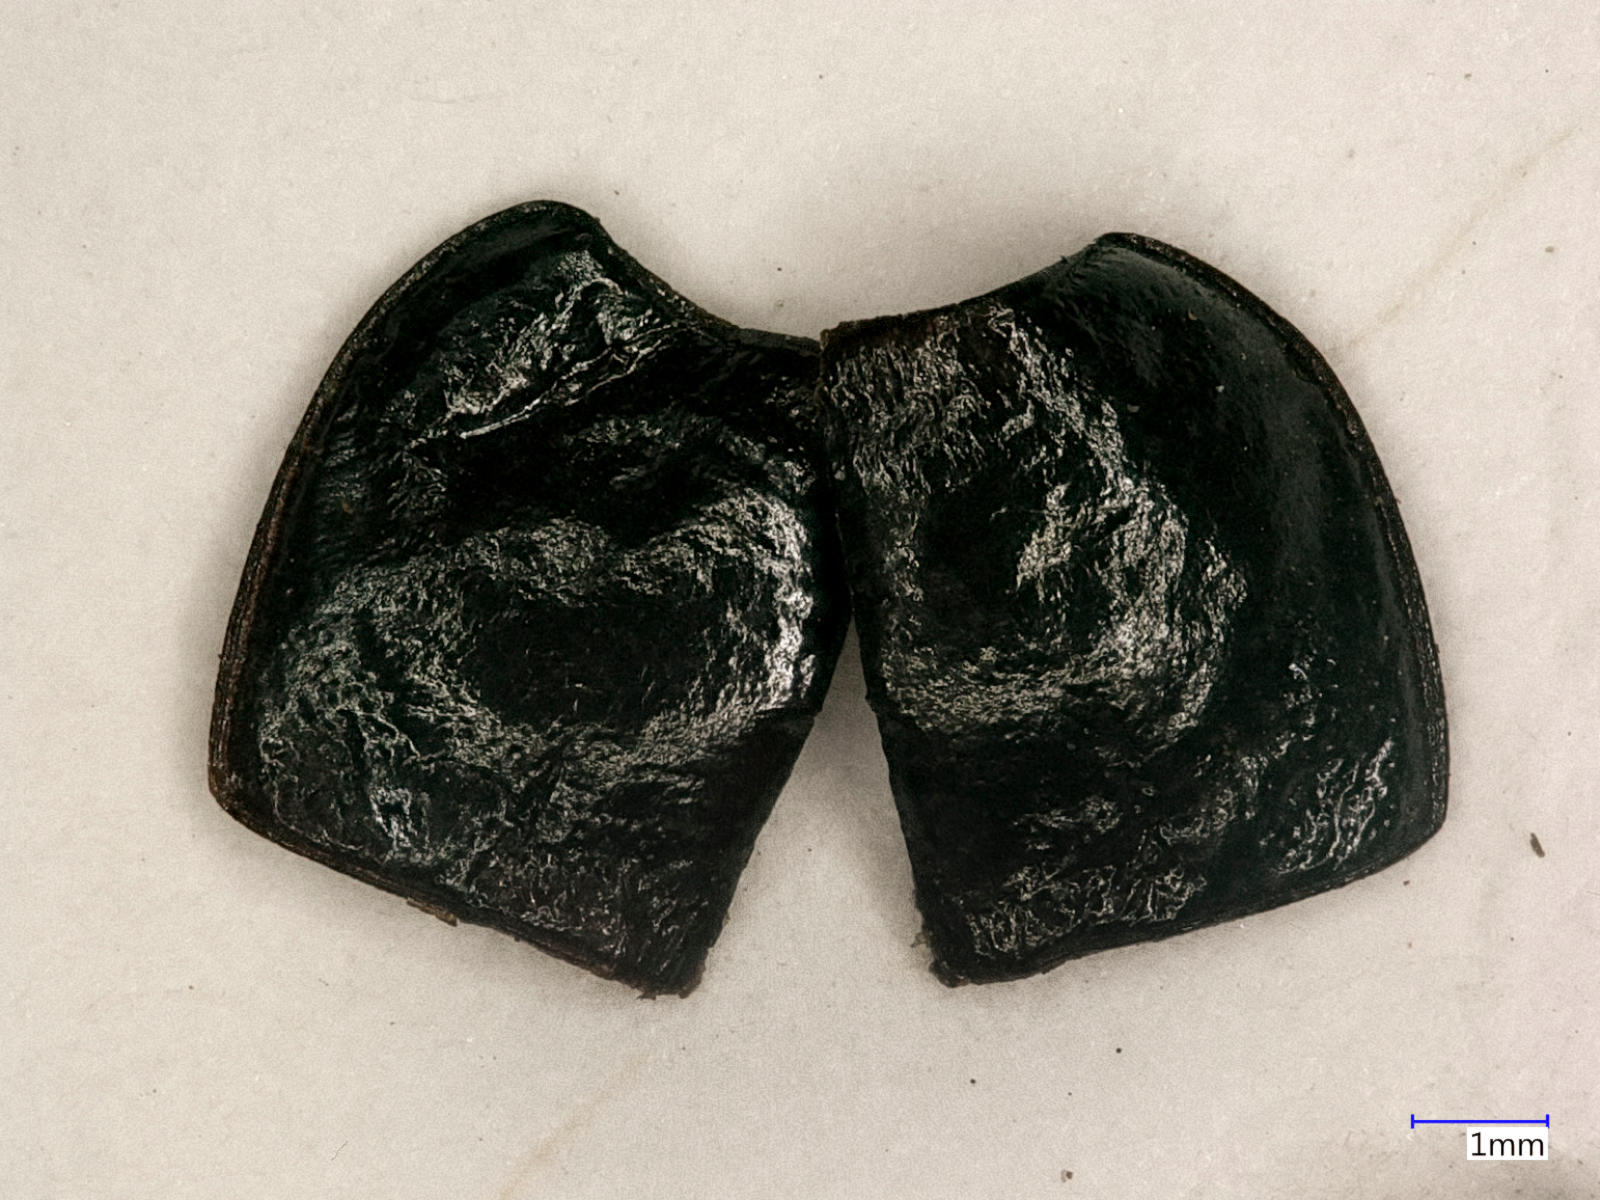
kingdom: Animalia
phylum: Arthropoda
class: Insecta
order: Coleoptera
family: Carabidae
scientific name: Carabidae
